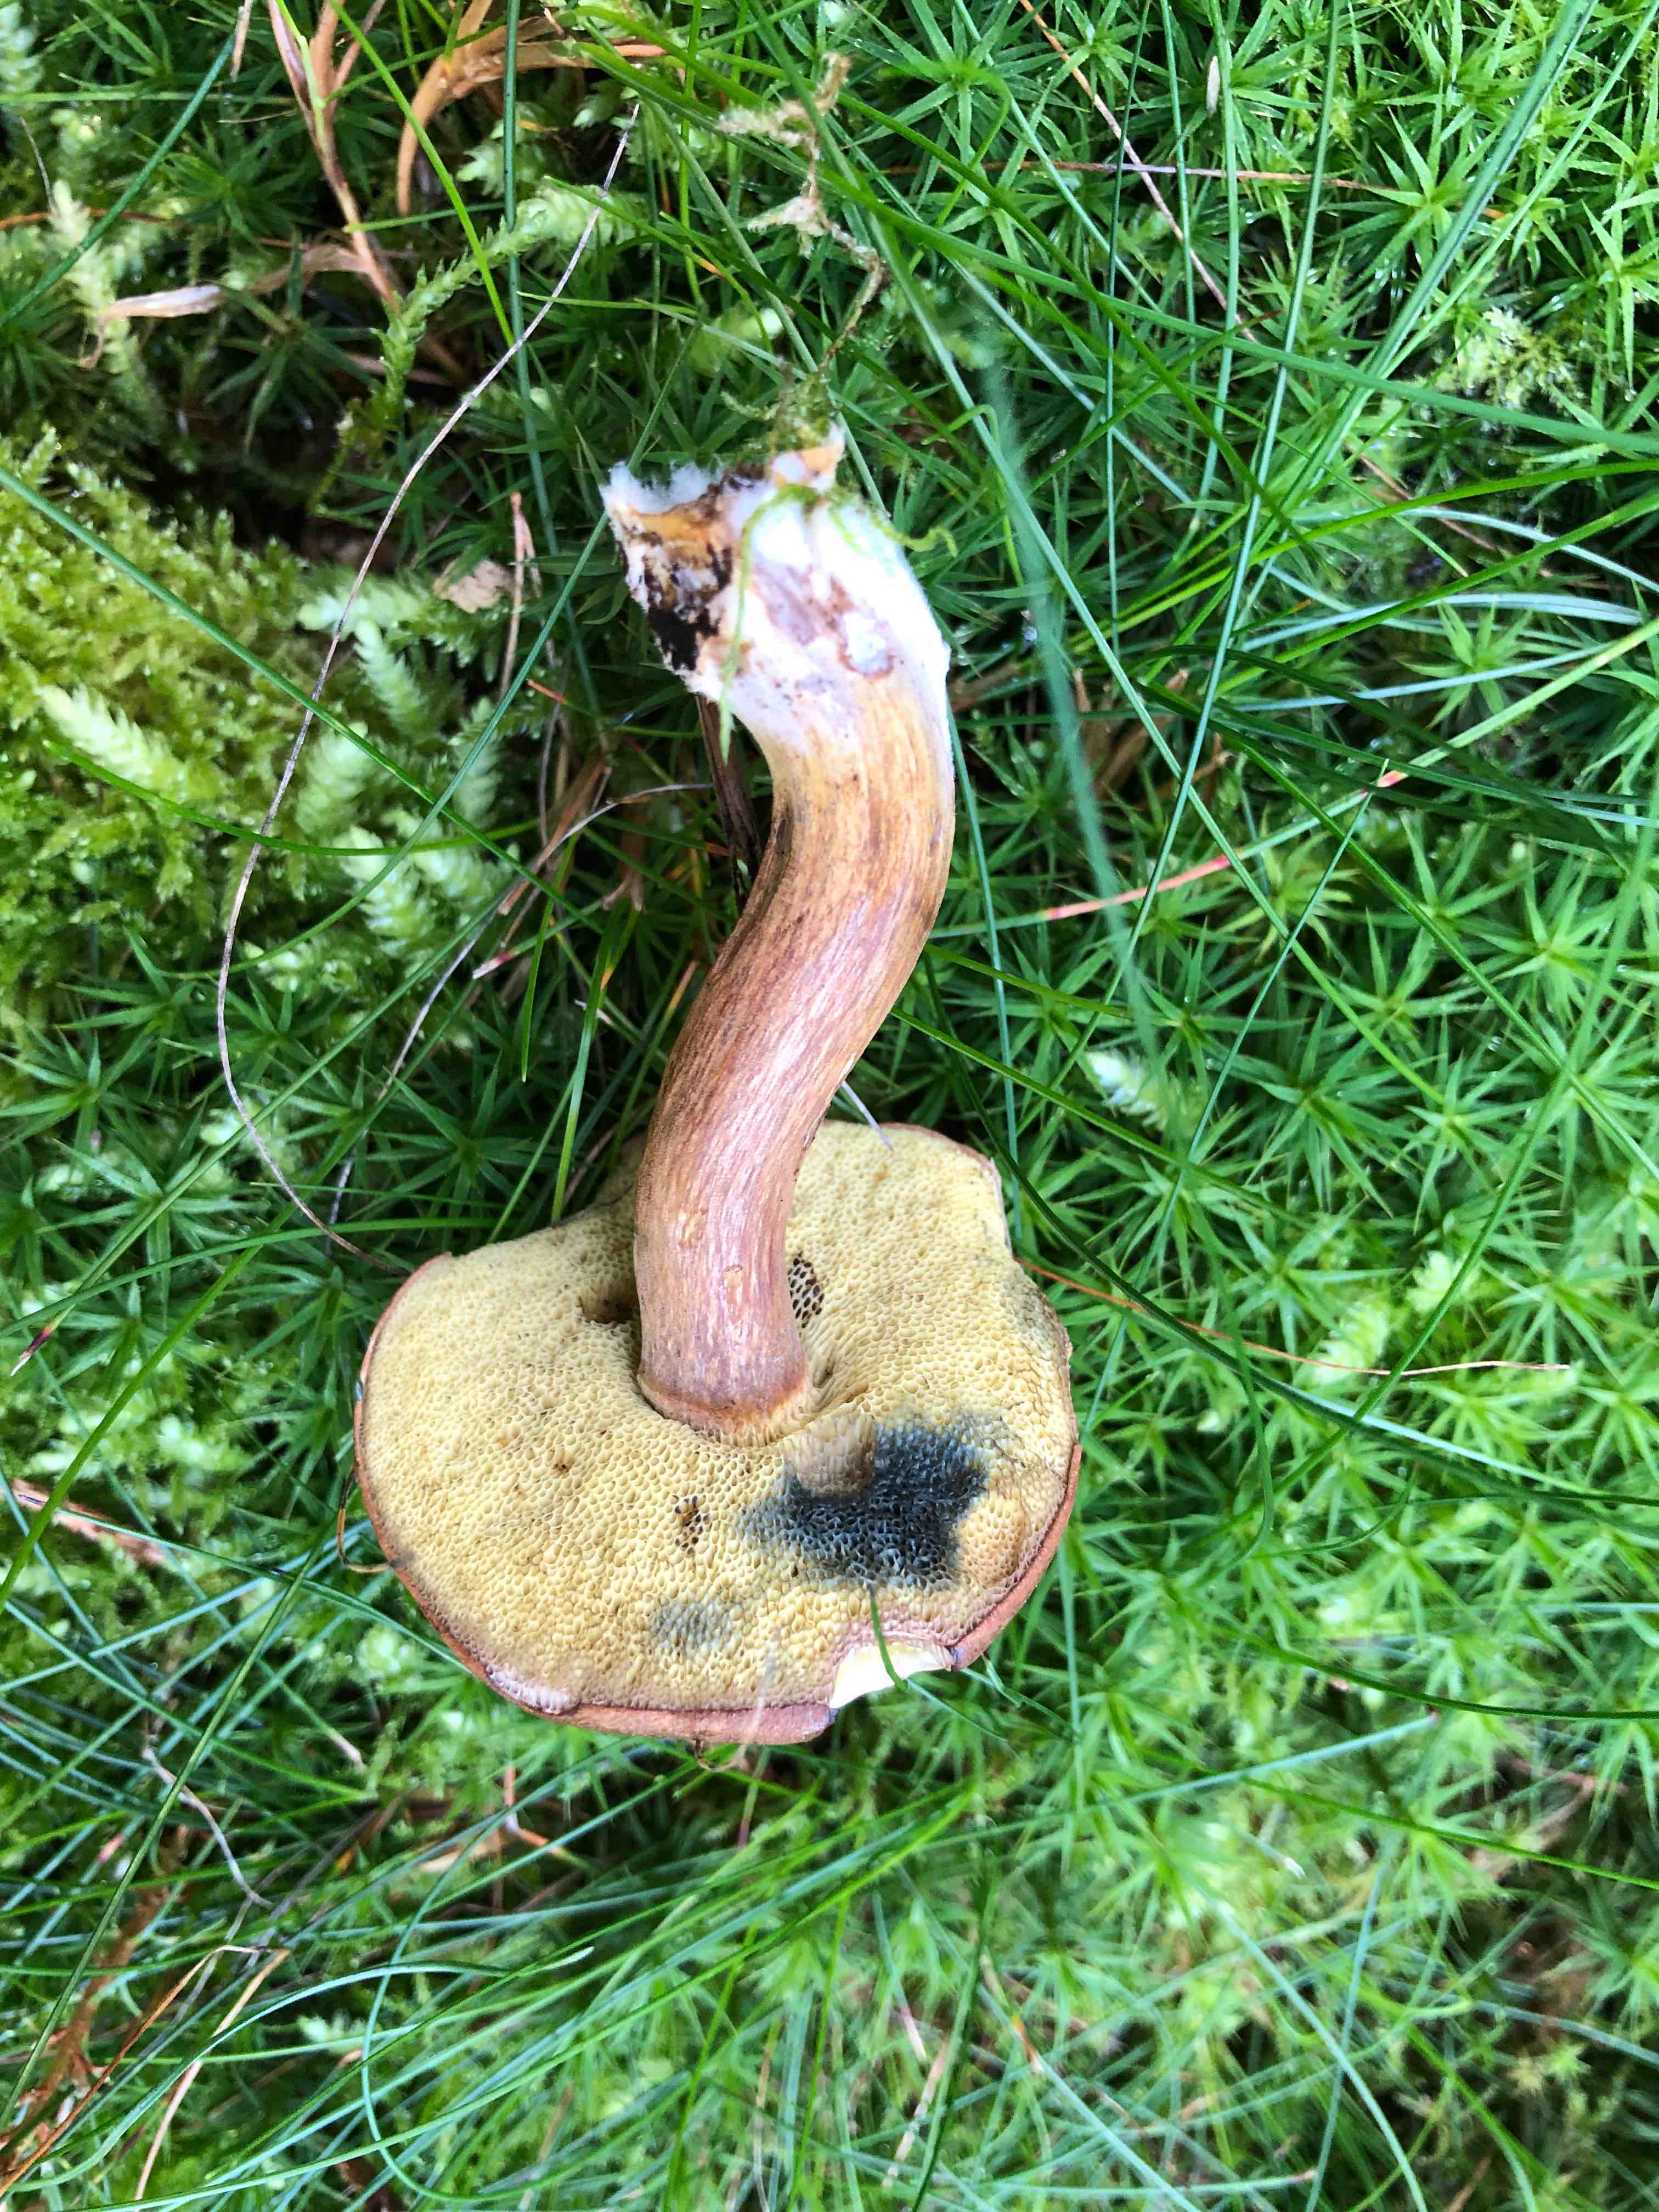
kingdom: Fungi
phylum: Basidiomycota
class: Agaricomycetes
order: Boletales
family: Boletaceae
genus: Imleria
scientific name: Imleria badia
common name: brunstokket rørhat
